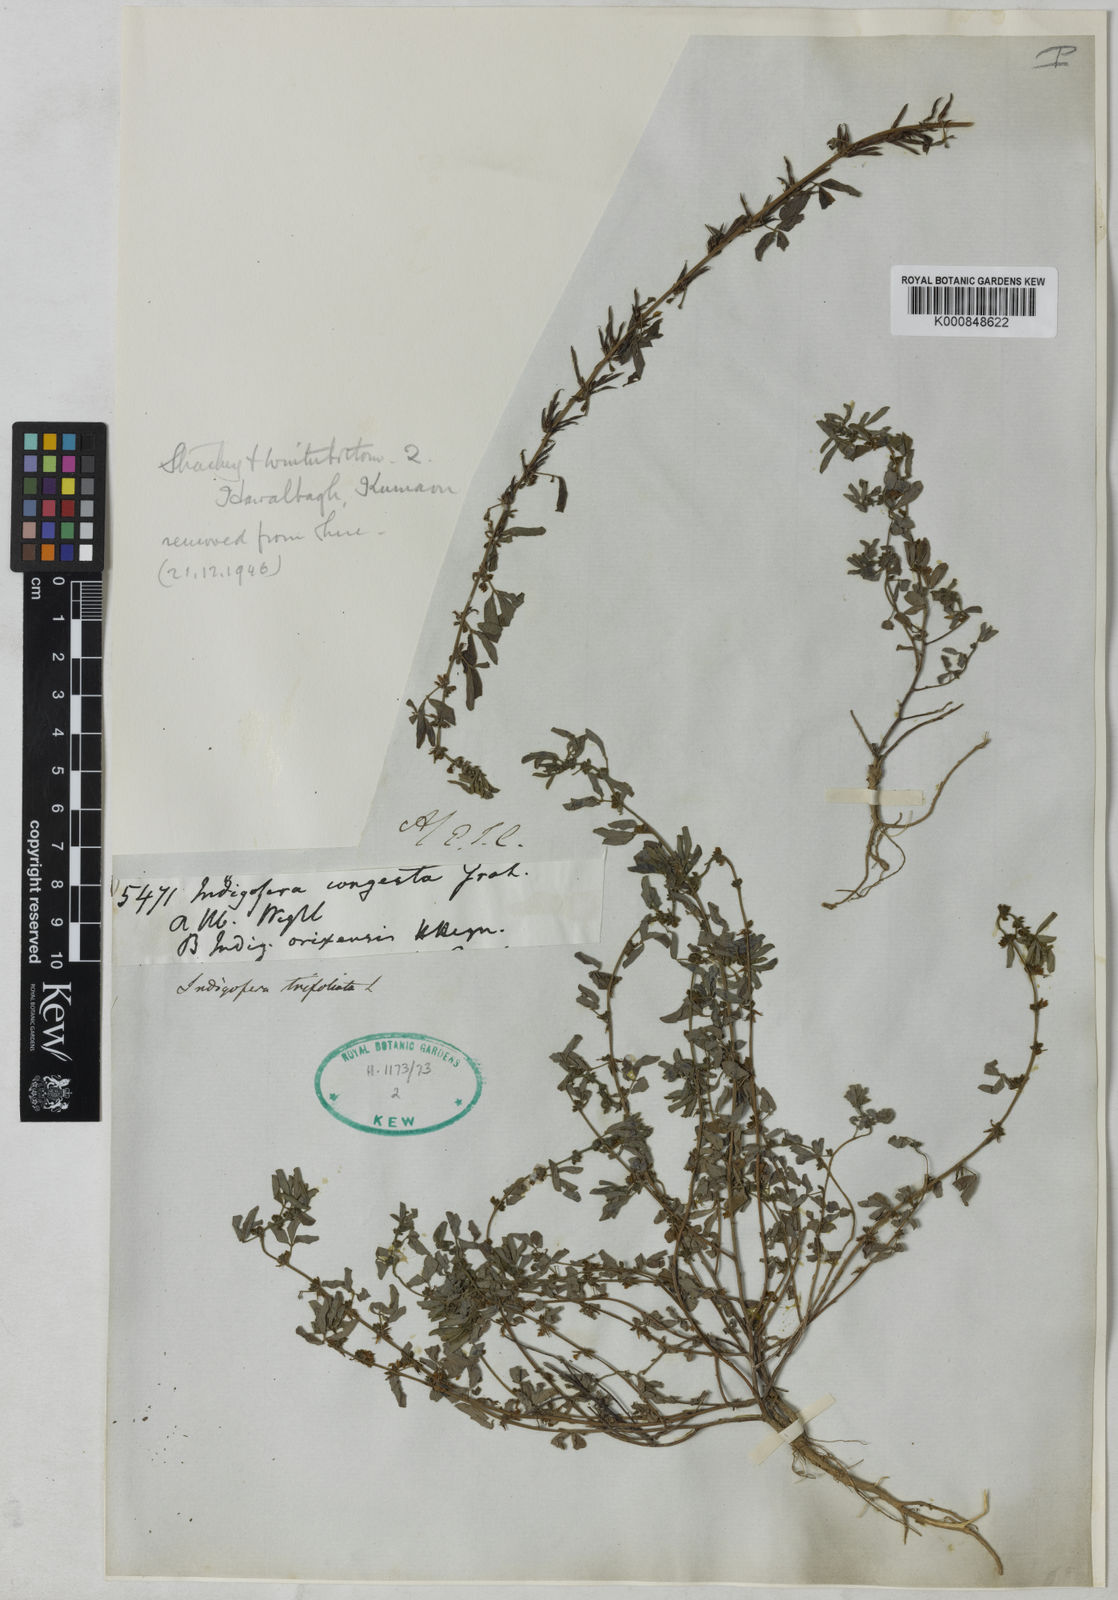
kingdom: Plantae
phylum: Tracheophyta
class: Magnoliopsida
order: Fabales
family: Fabaceae
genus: Indigofera
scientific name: Indigofera trifoliata
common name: Threeleaf indigo
